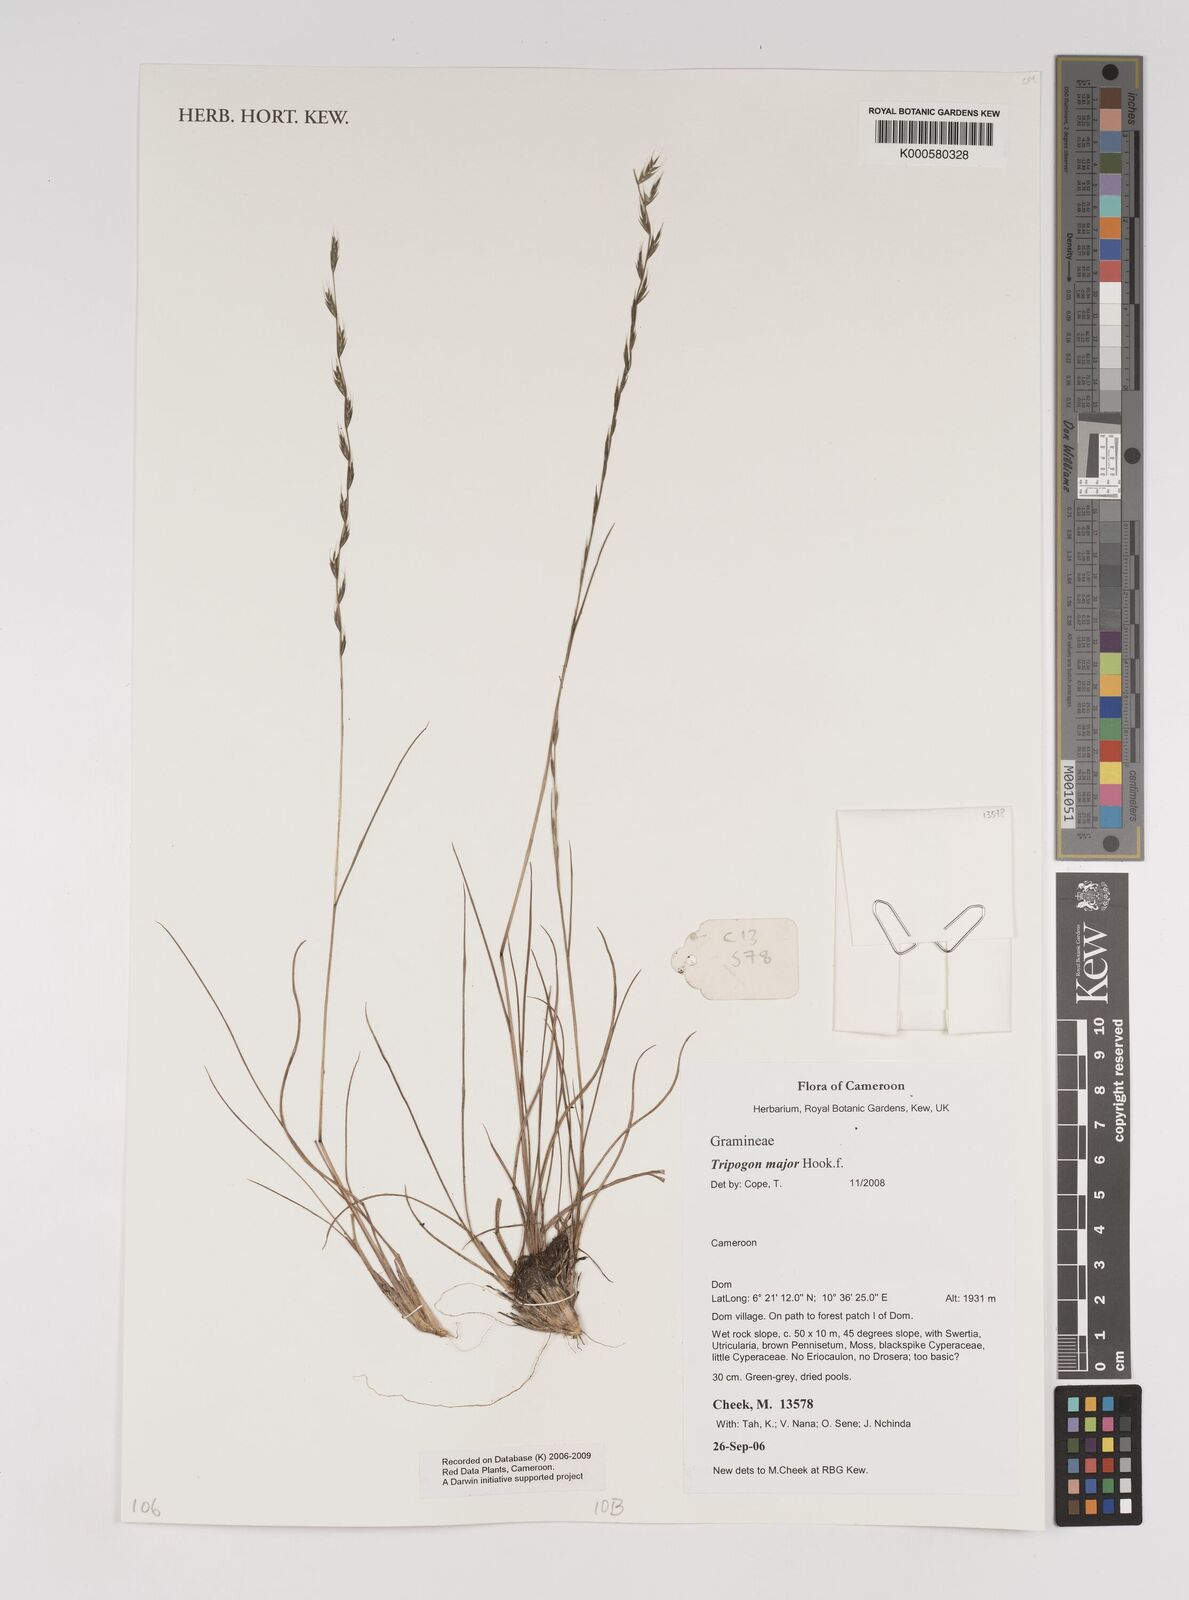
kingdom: Plantae
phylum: Tracheophyta
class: Liliopsida
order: Poales
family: Poaceae
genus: Tripogon
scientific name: Tripogon major
